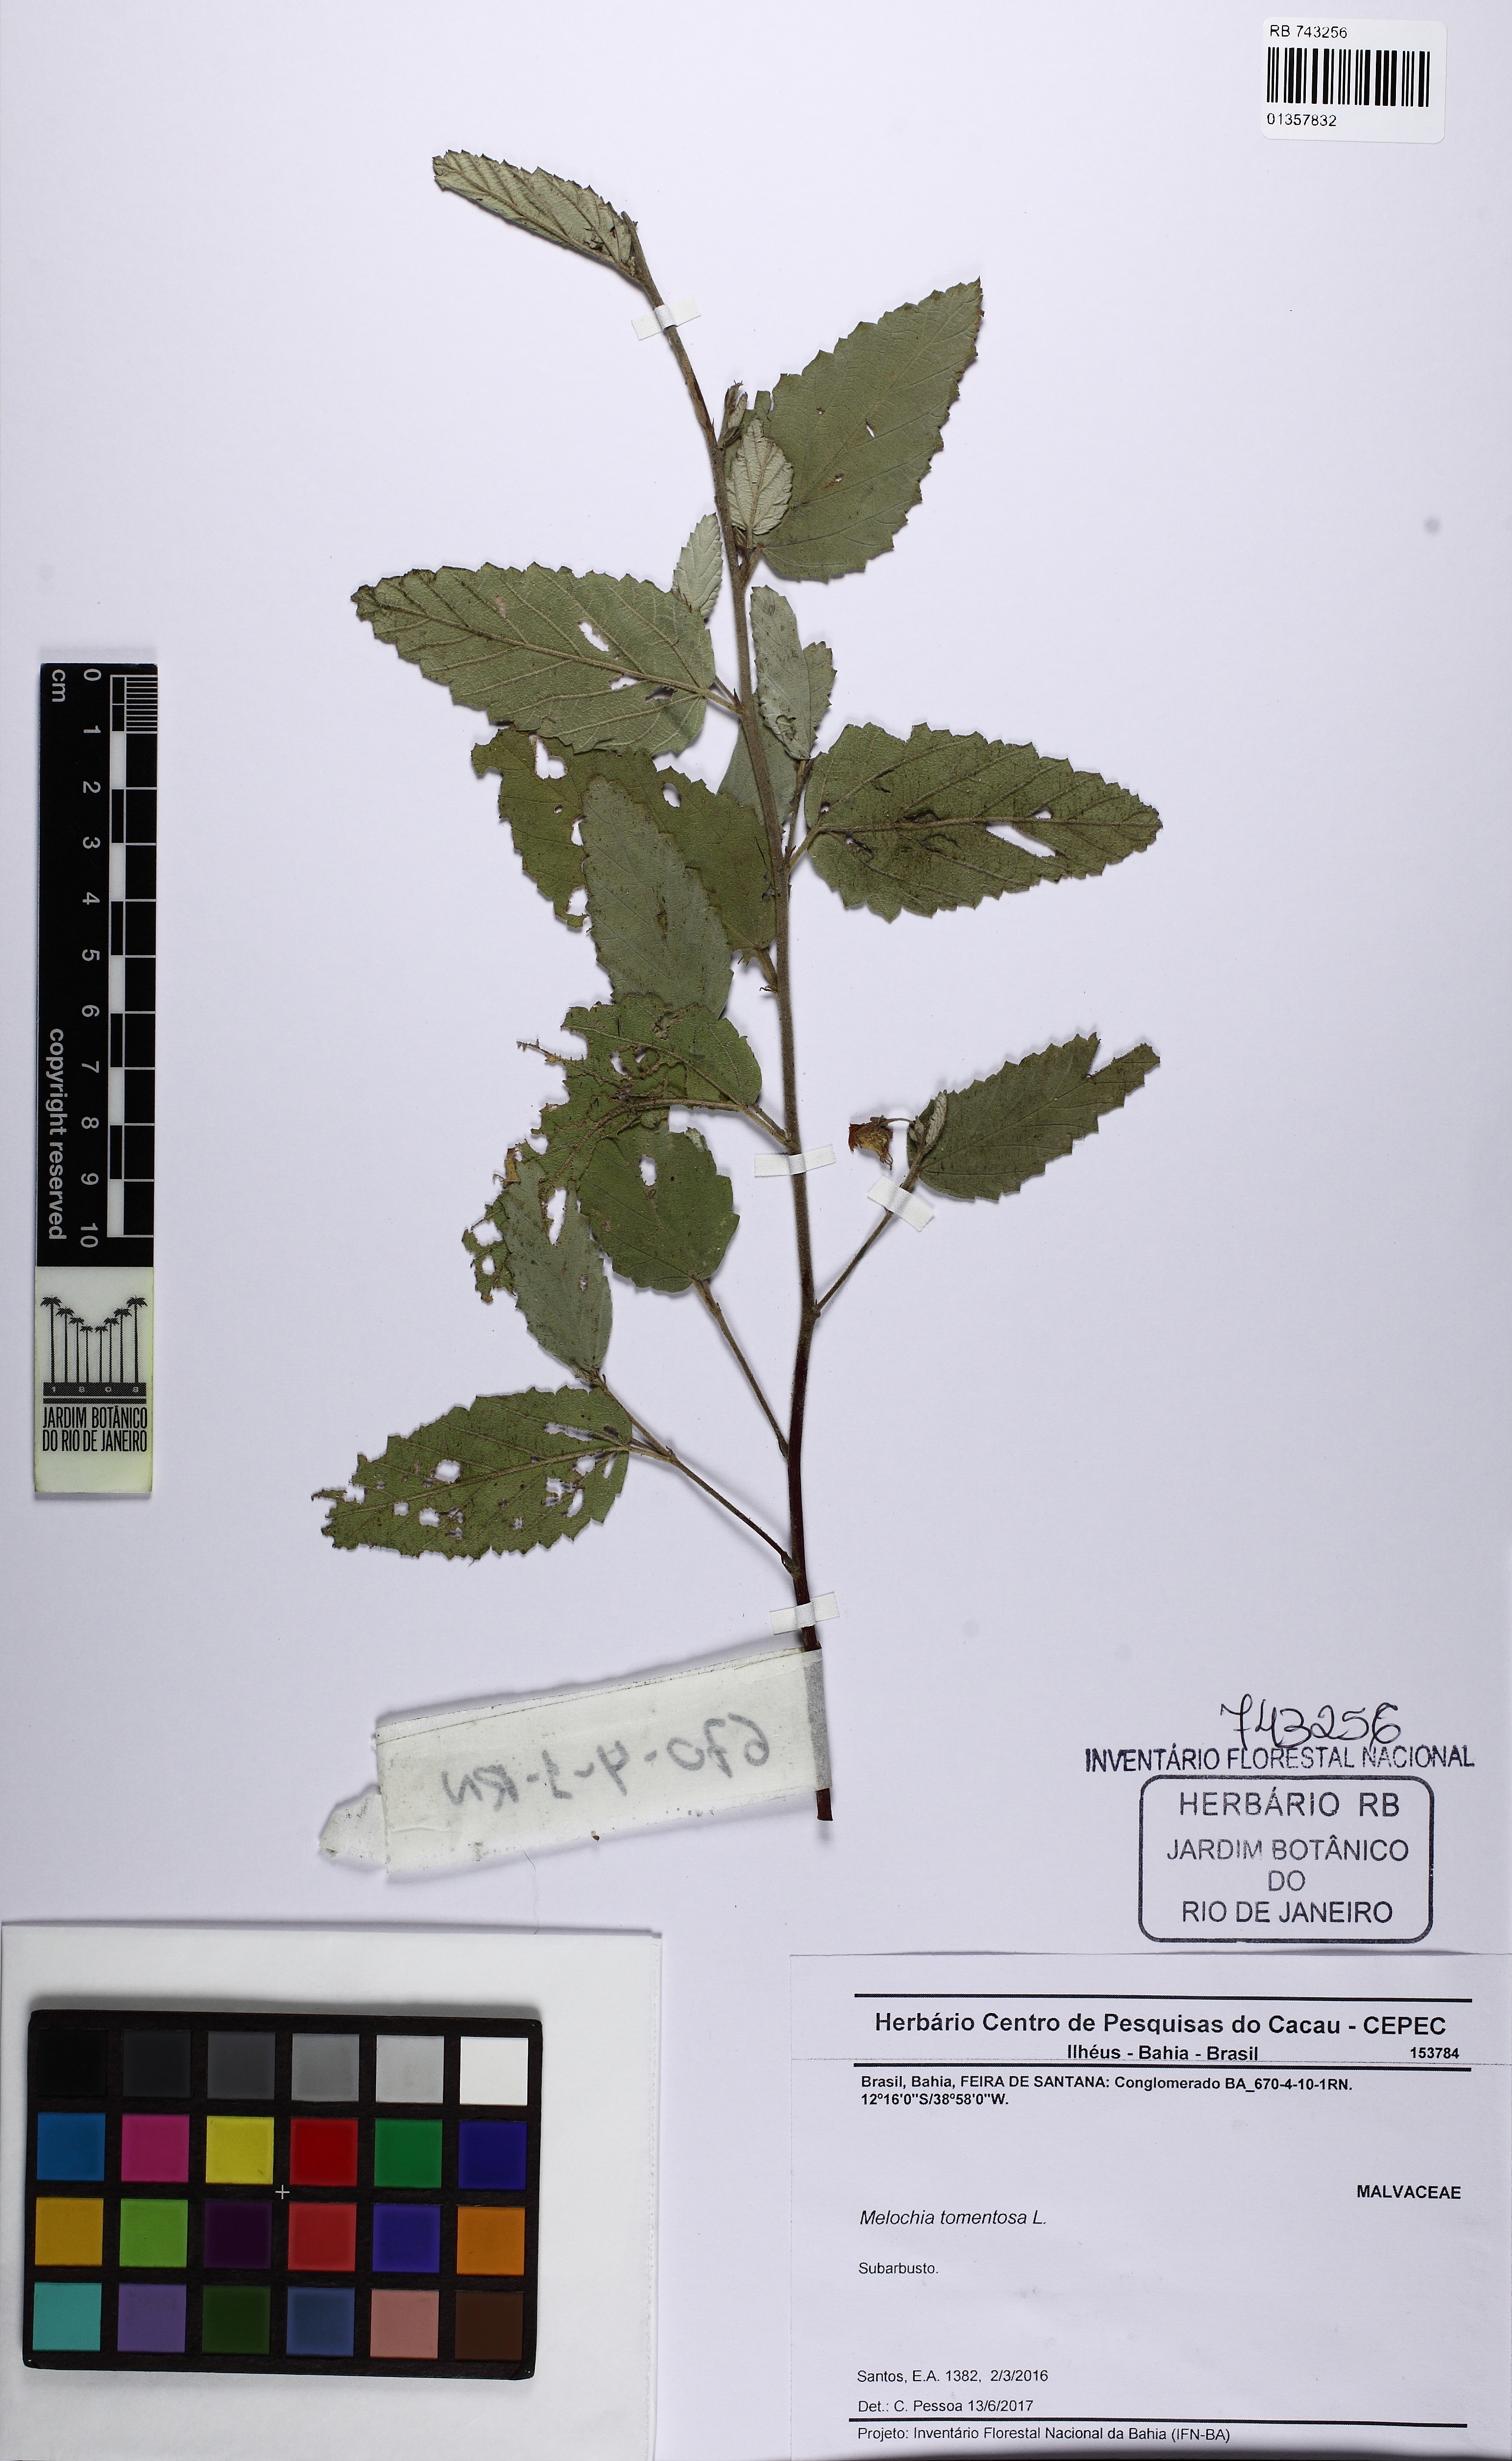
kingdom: Plantae
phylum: Tracheophyta
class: Magnoliopsida
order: Malvales
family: Malvaceae
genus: Melochia
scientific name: Melochia tomentosa
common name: Black torch
